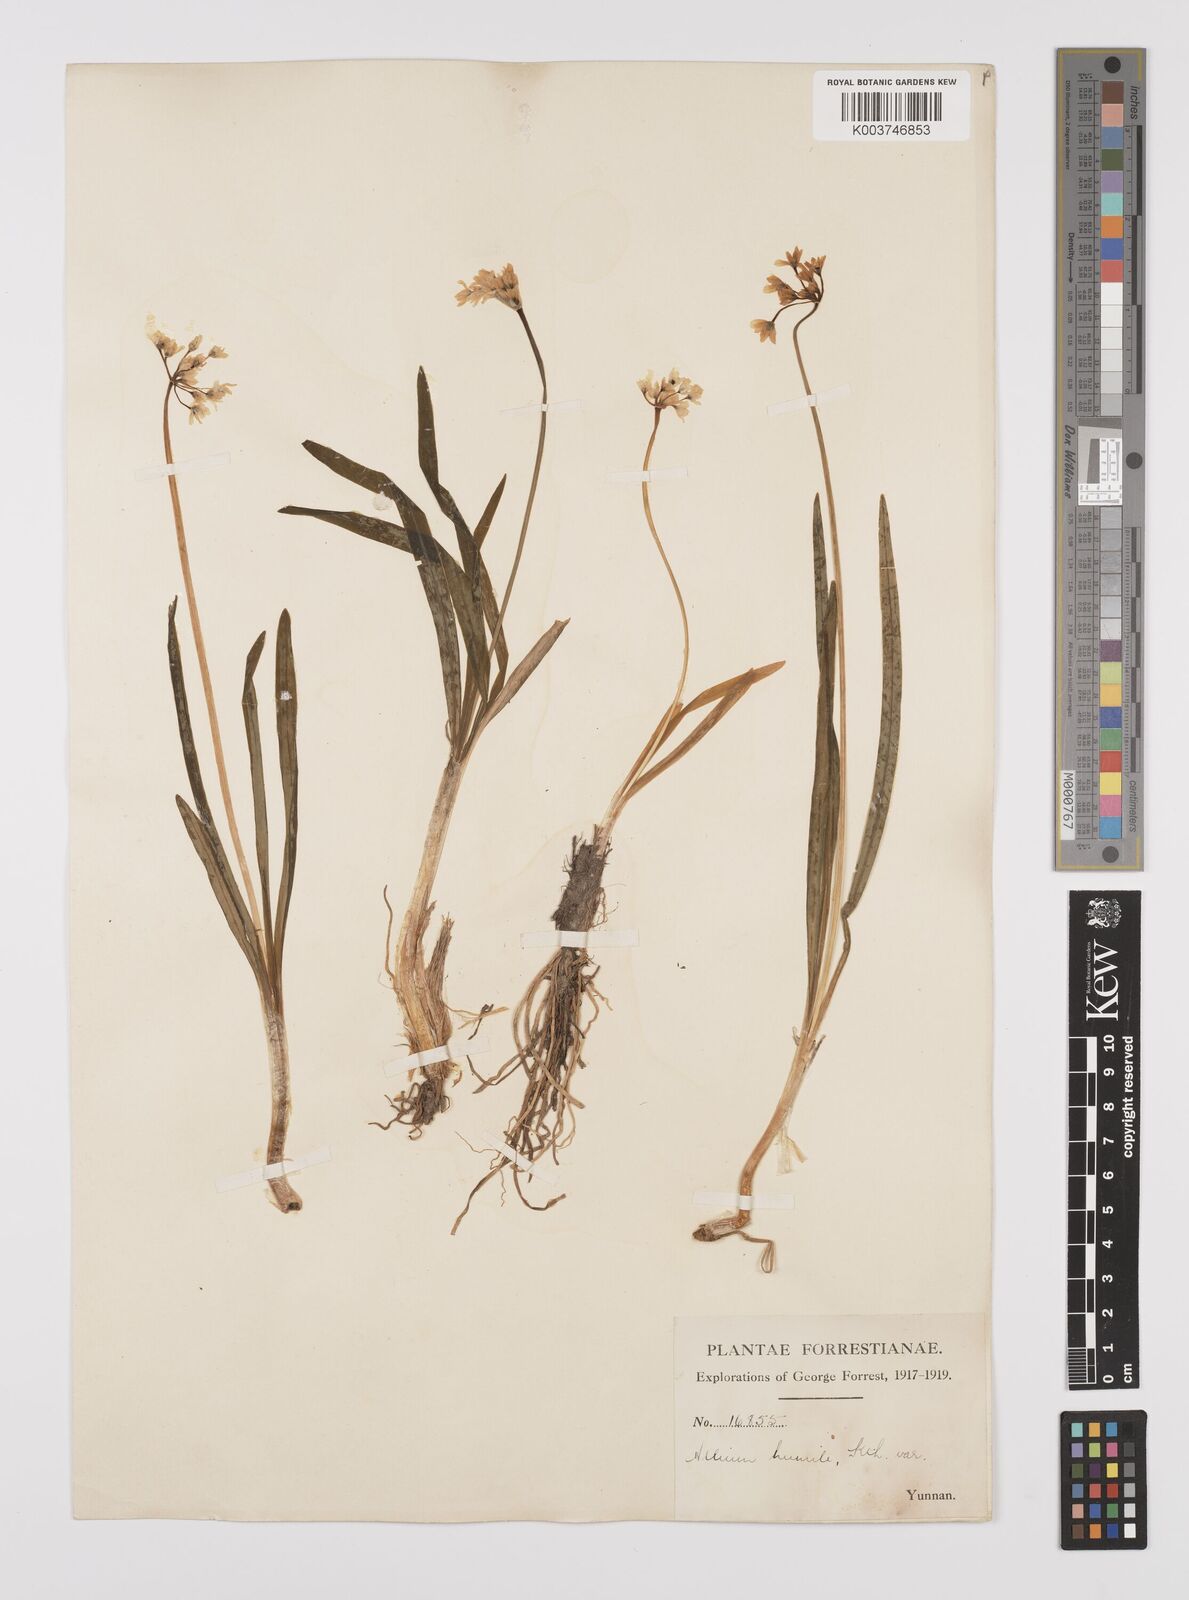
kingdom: Plantae
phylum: Tracheophyta
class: Liliopsida
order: Asparagales
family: Amaryllidaceae
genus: Allium
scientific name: Allium trifurcatum
